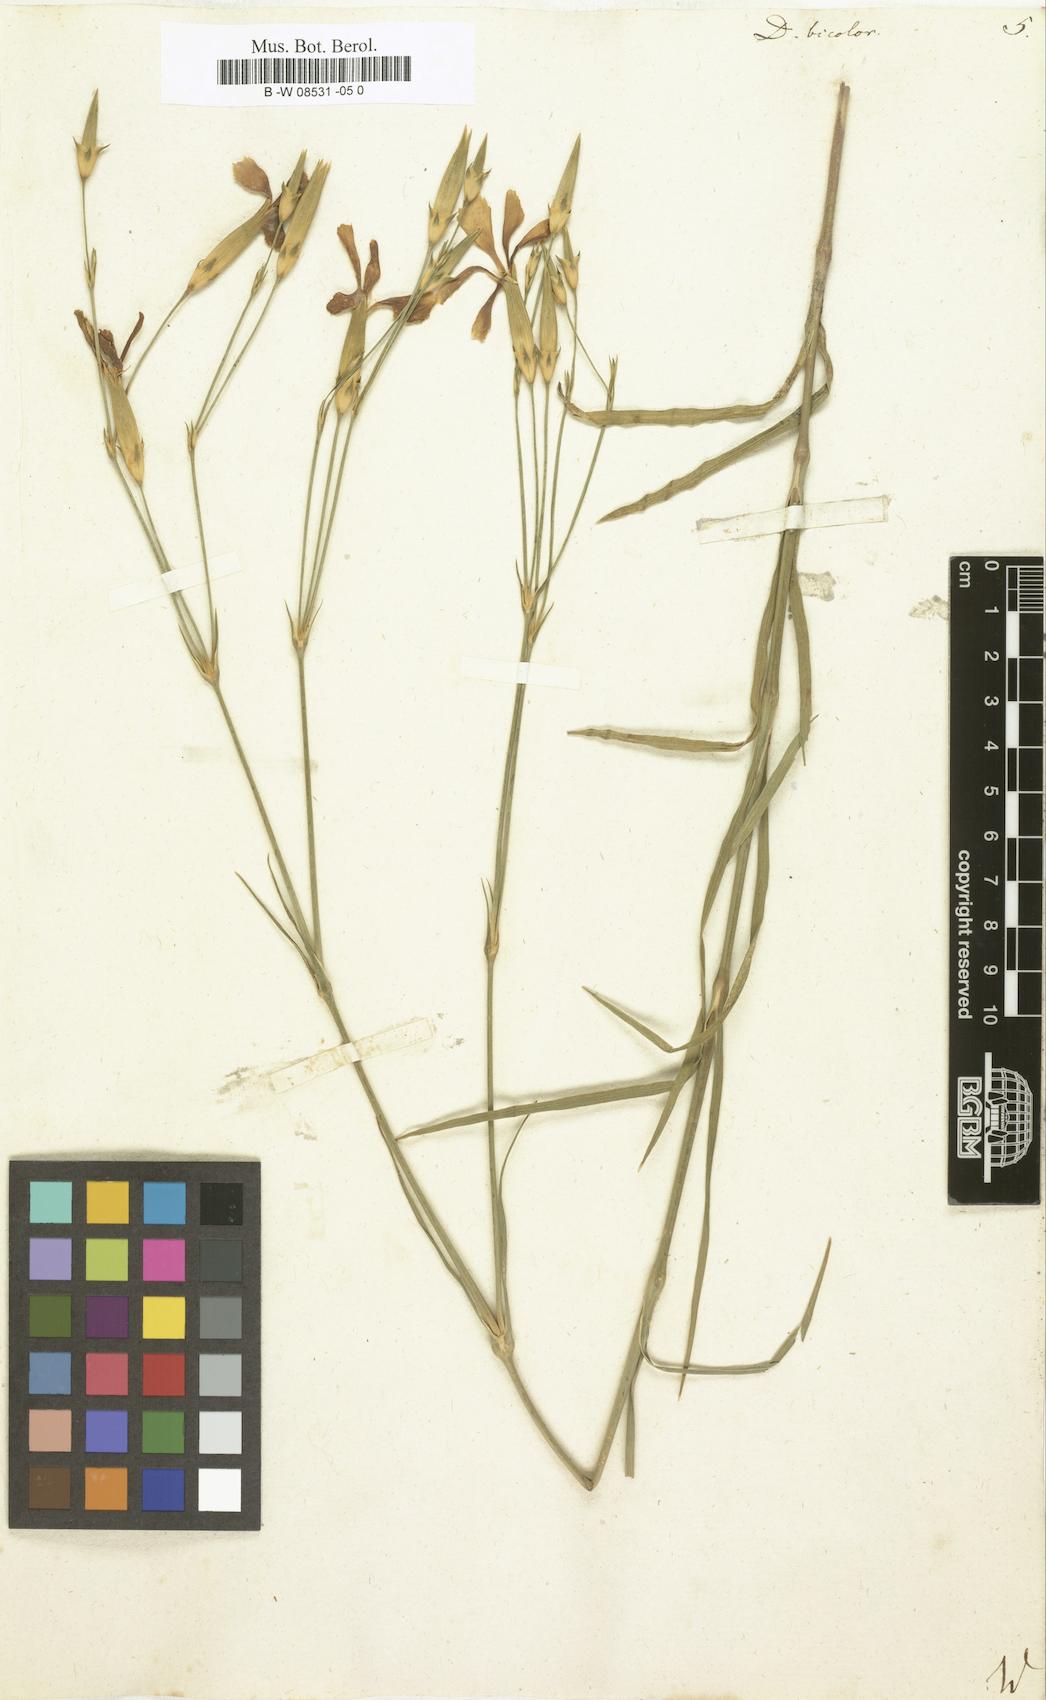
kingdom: Plantae
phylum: Tracheophyta
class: Magnoliopsida
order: Caryophyllales
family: Caryophyllaceae
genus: Dianthus
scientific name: Dianthus bicolor
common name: Bicolour pink
